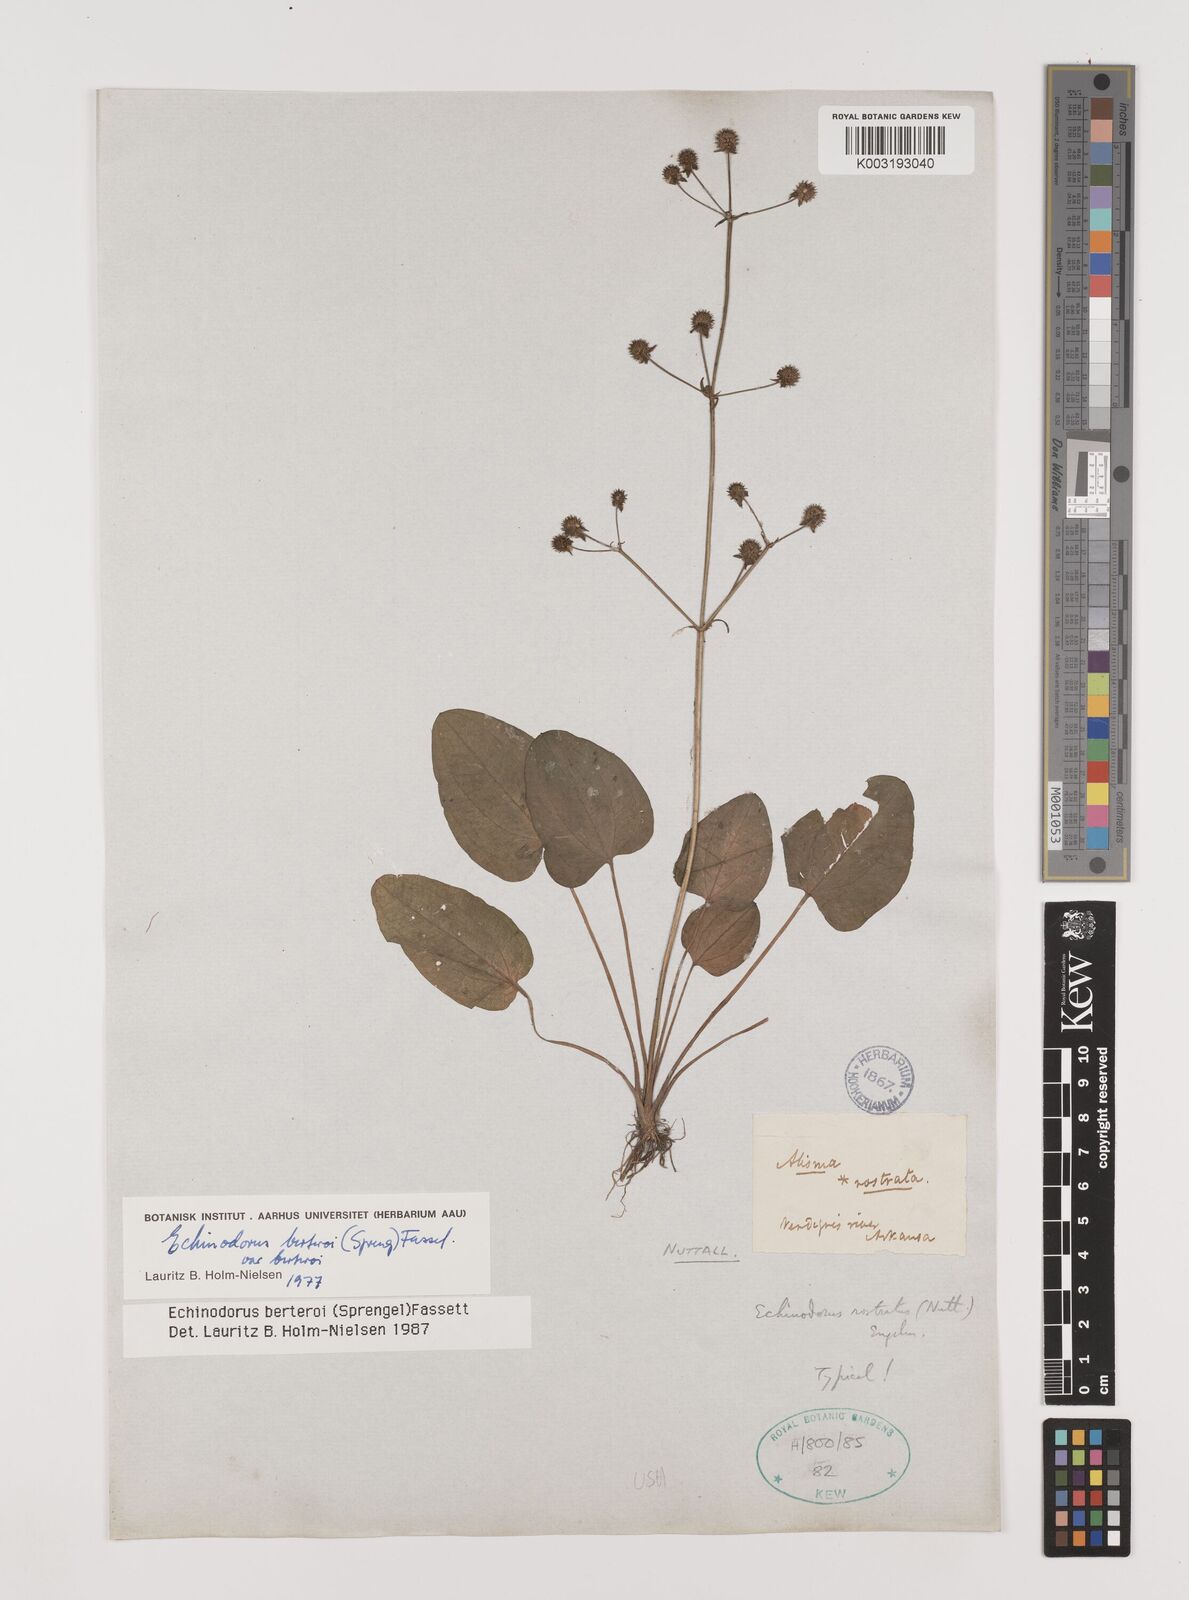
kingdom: Plantae
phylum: Tracheophyta
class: Liliopsida
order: Alismatales
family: Alismataceae
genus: Echinodorus
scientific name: Echinodorus berteroi
